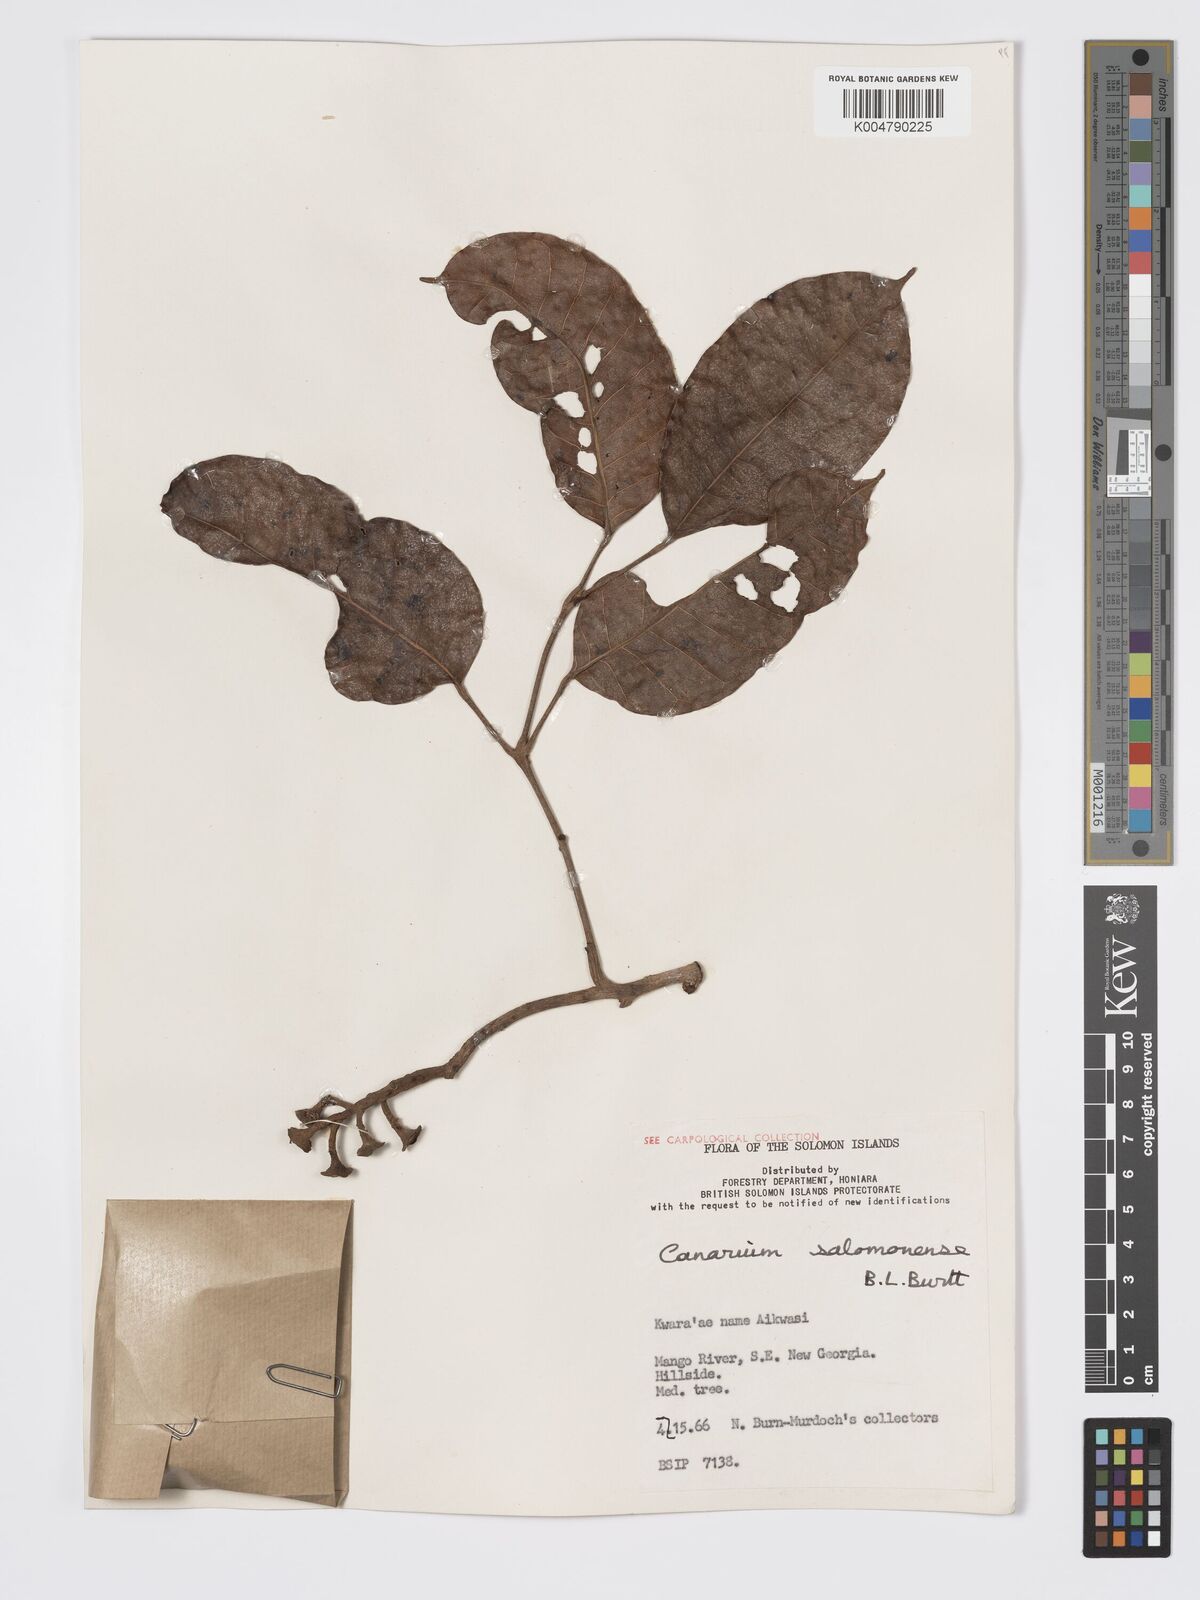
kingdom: Plantae
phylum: Tracheophyta
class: Magnoliopsida
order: Sapindales
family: Burseraceae
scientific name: Burseraceae
